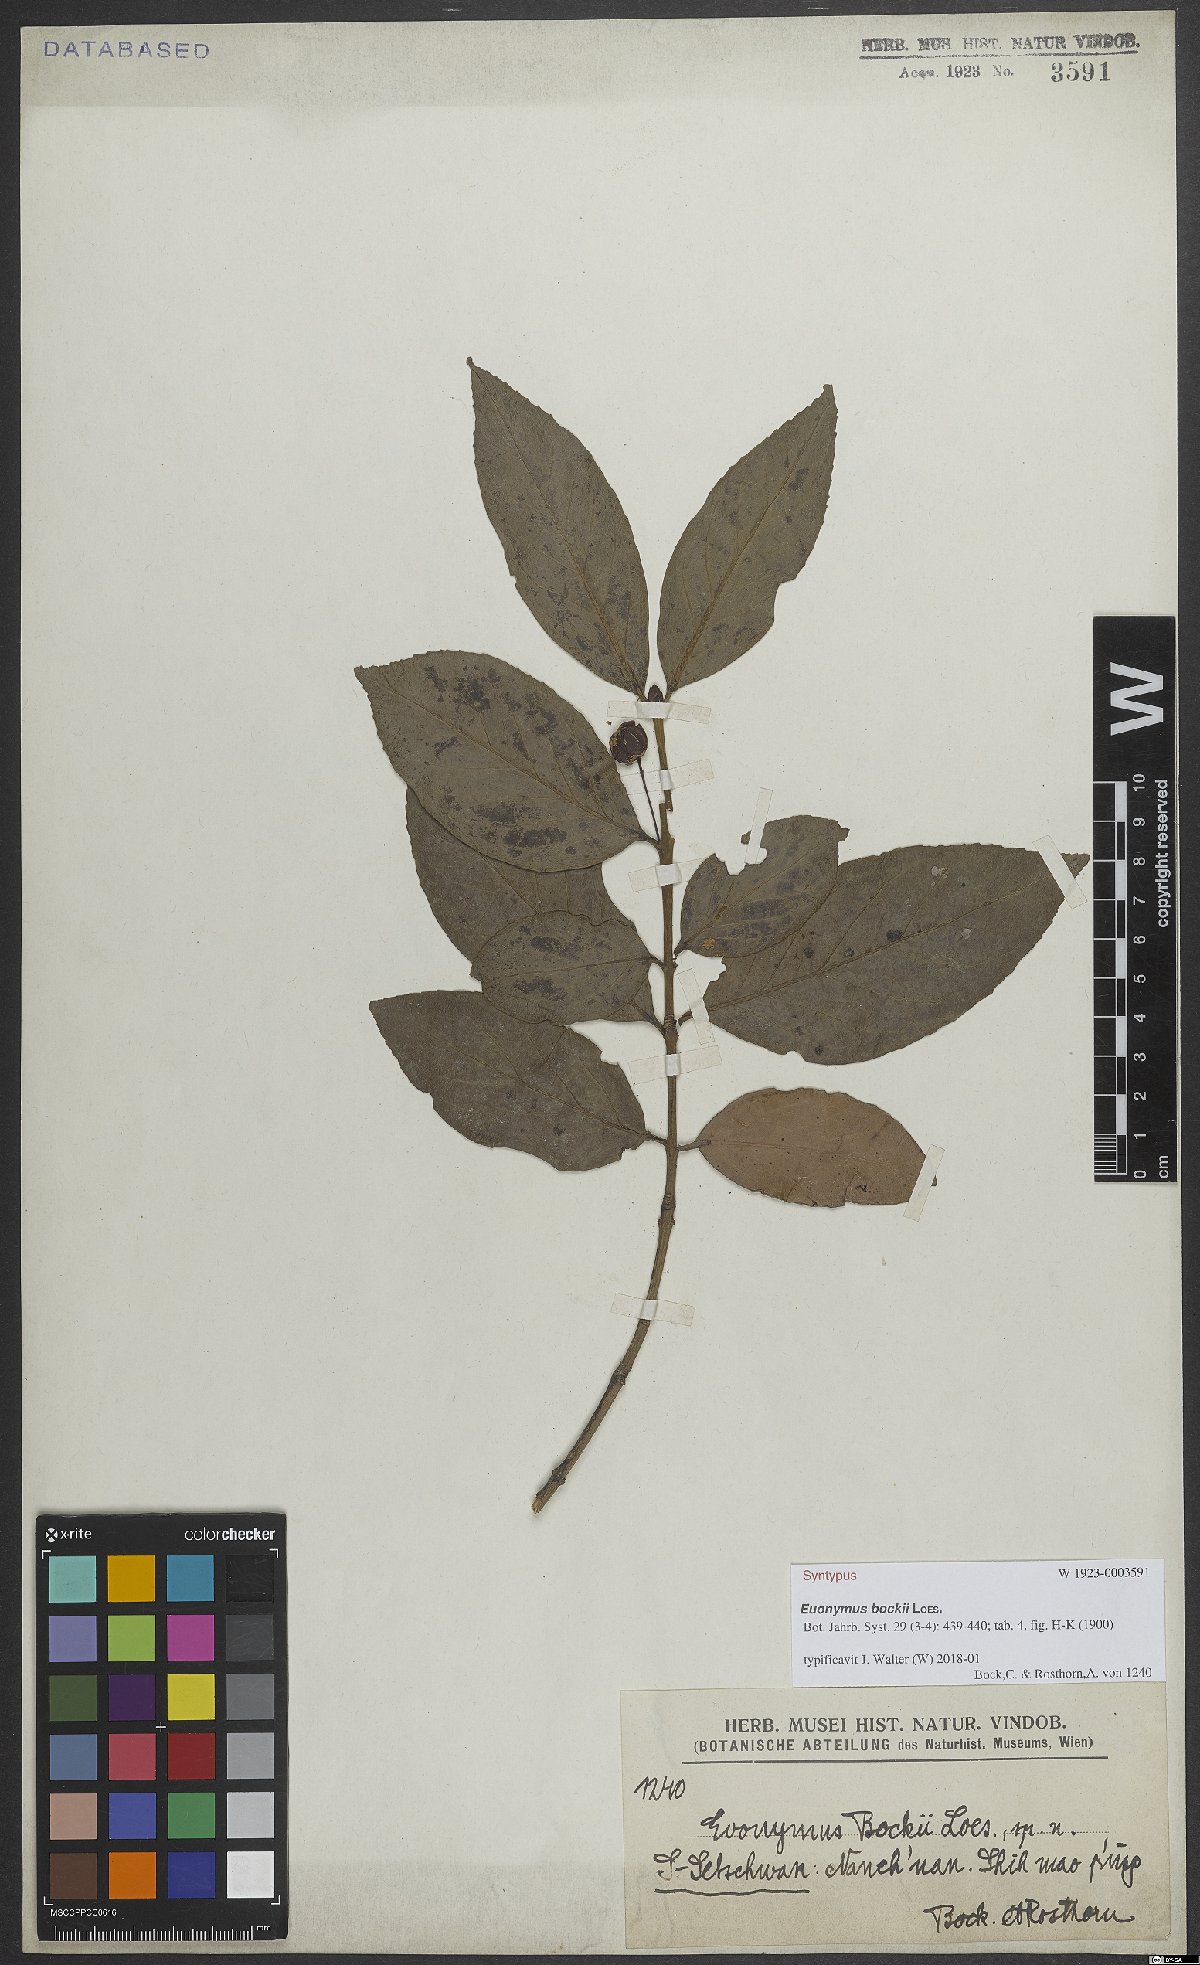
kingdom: Plantae
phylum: Tracheophyta
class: Magnoliopsida
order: Celastrales
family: Celastraceae
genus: Euonymus
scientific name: Euonymus bockii
